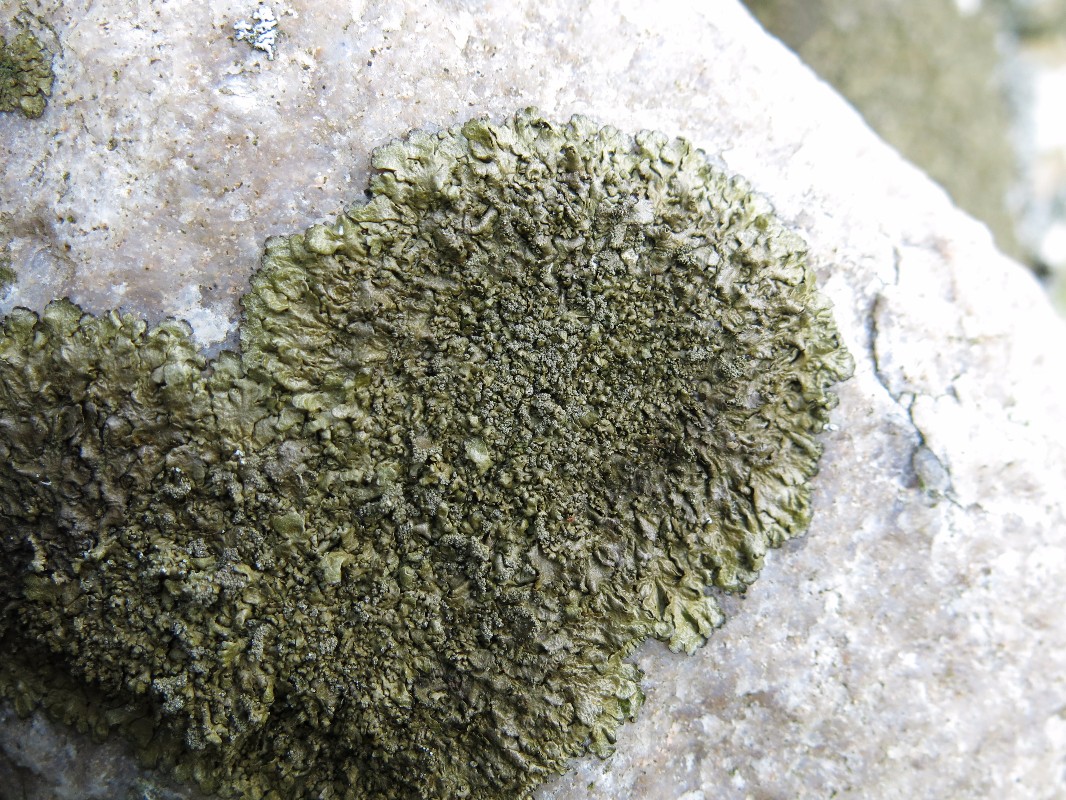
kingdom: Fungi
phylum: Ascomycota
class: Lecanoromycetes
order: Lecanorales
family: Parmeliaceae
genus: Xanthoparmelia
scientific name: Xanthoparmelia verruculifera
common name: småknoppet skållav
